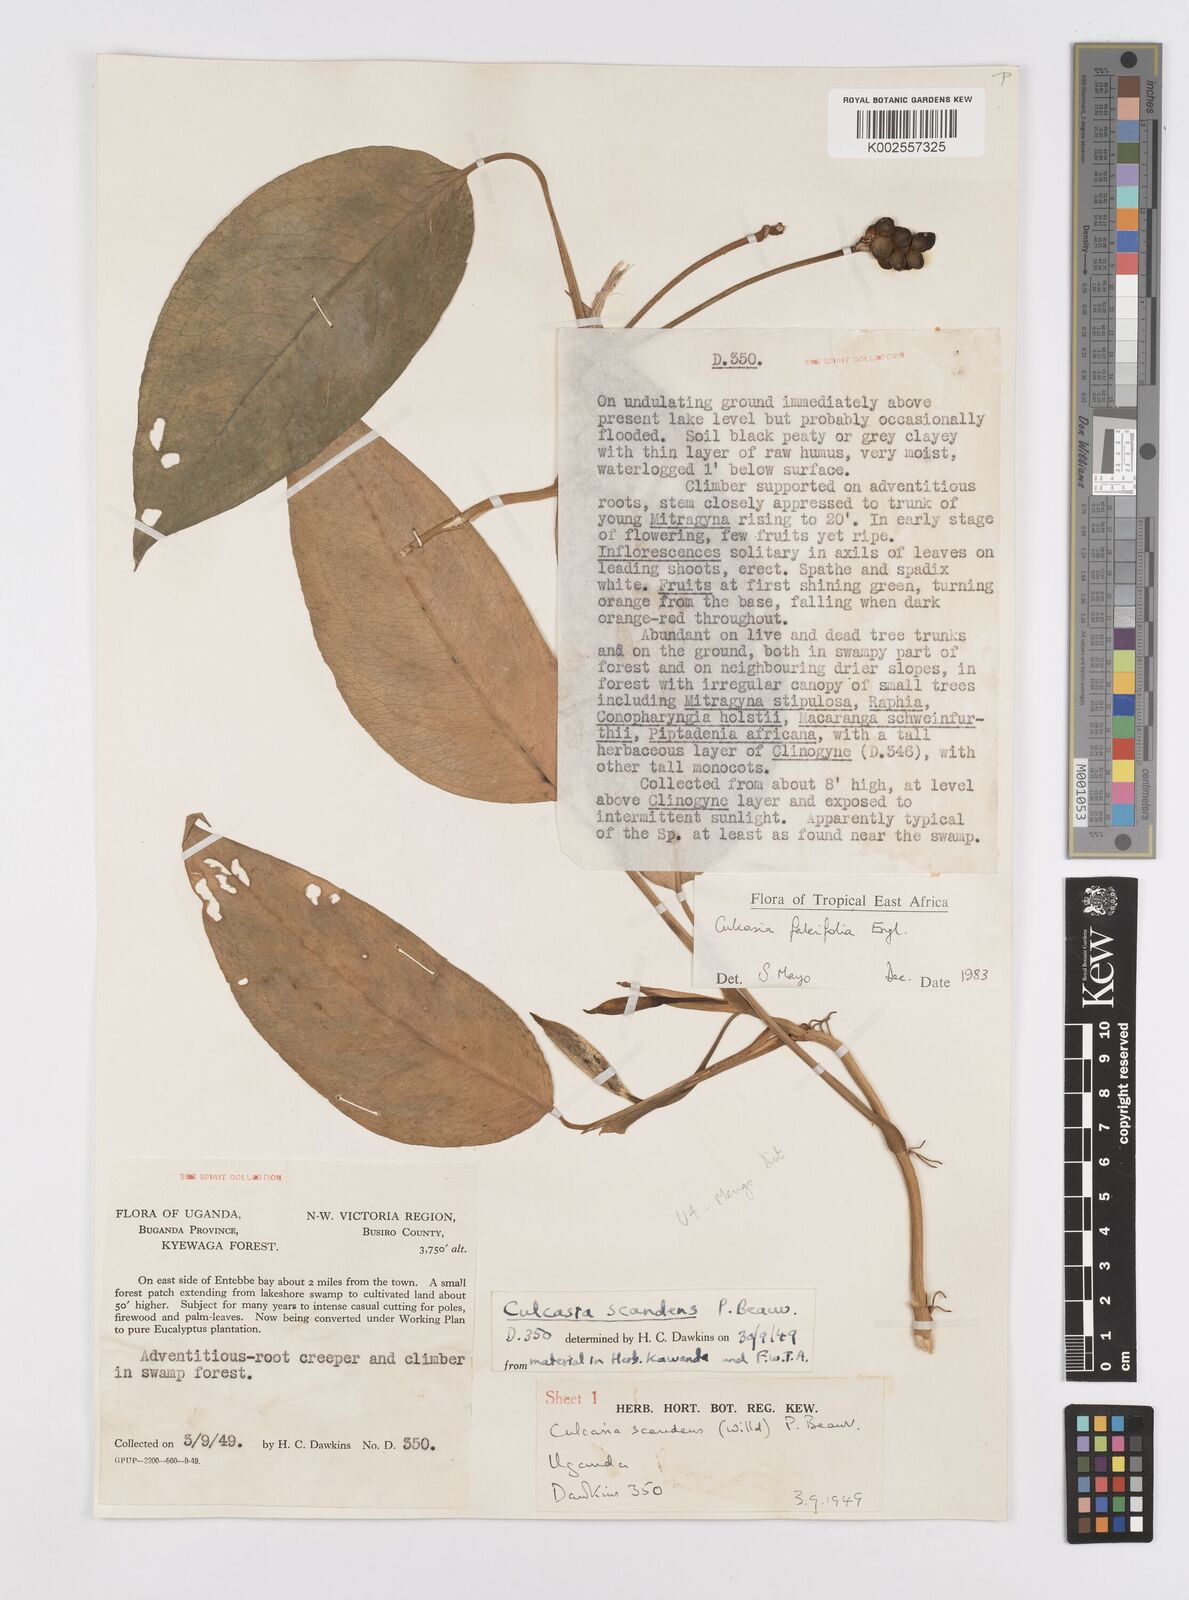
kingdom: Plantae
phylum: Tracheophyta
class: Liliopsida
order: Alismatales
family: Araceae
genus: Culcasia
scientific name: Culcasia falcifolia
